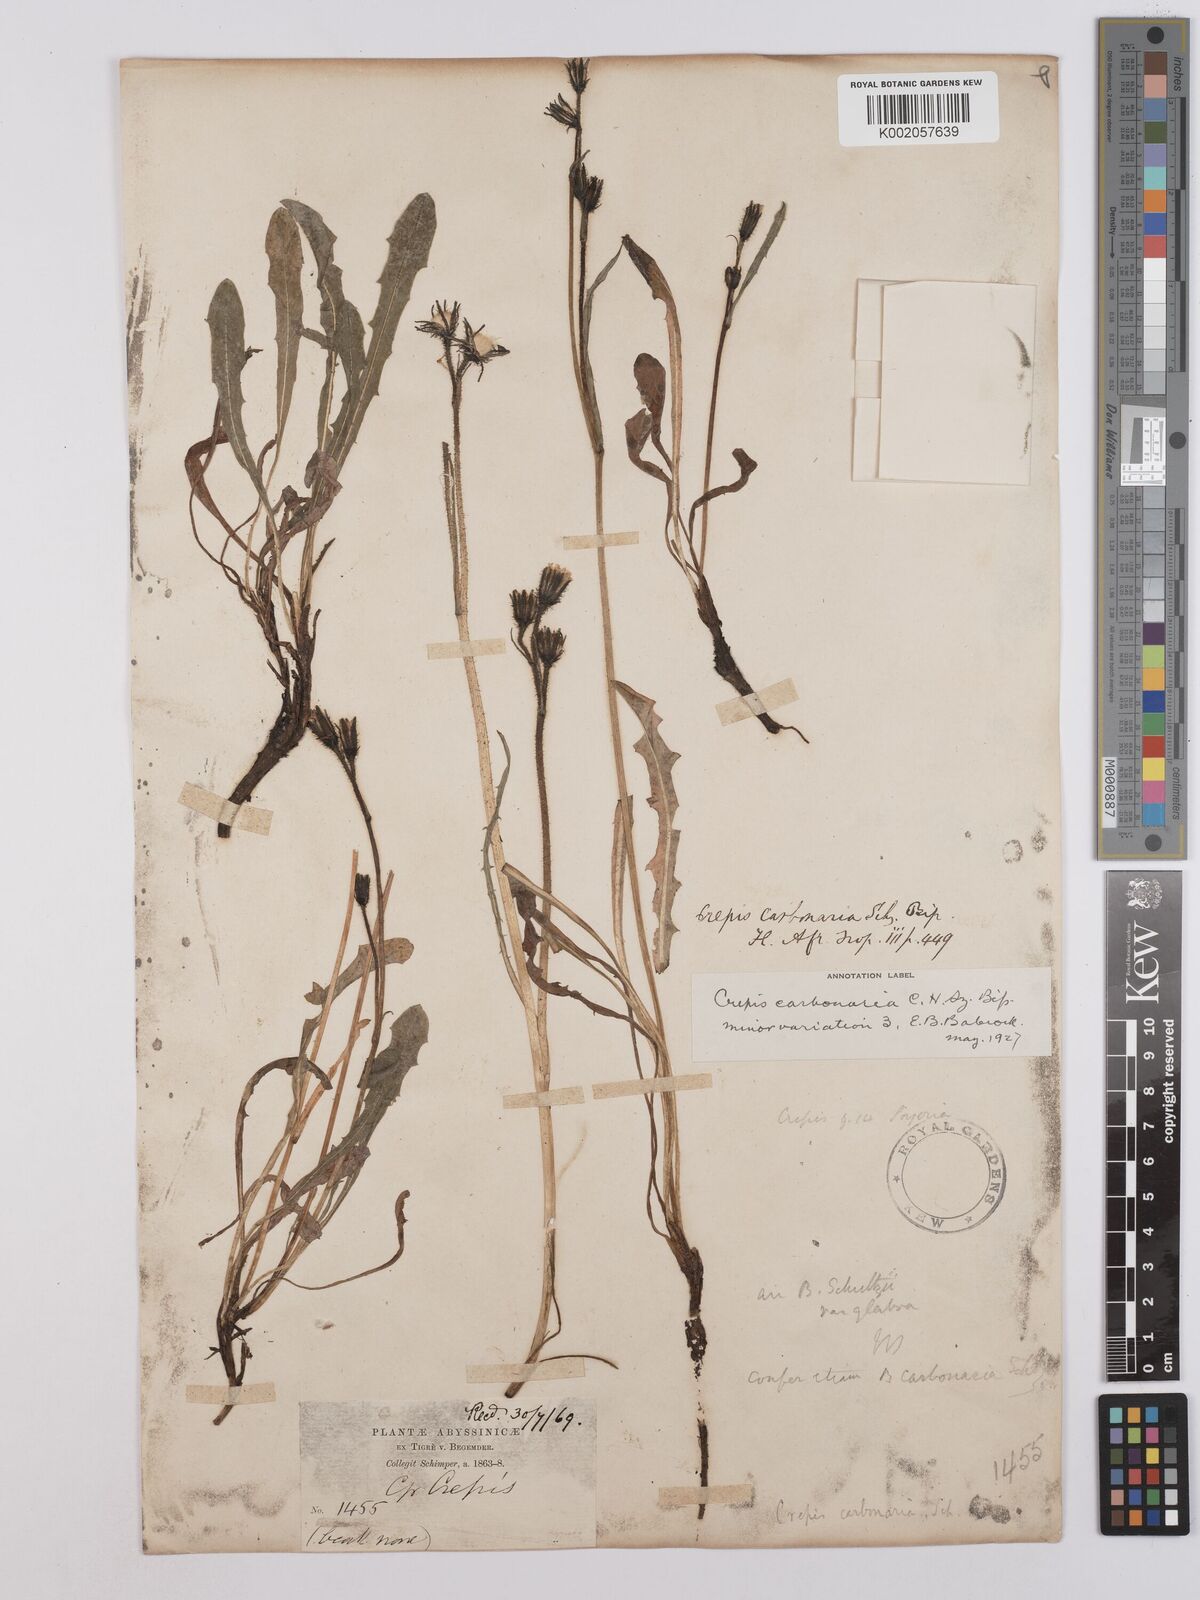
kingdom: Plantae
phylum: Tracheophyta
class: Magnoliopsida
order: Asterales
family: Asteraceae
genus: Crepis
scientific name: Crepis carbonaria
